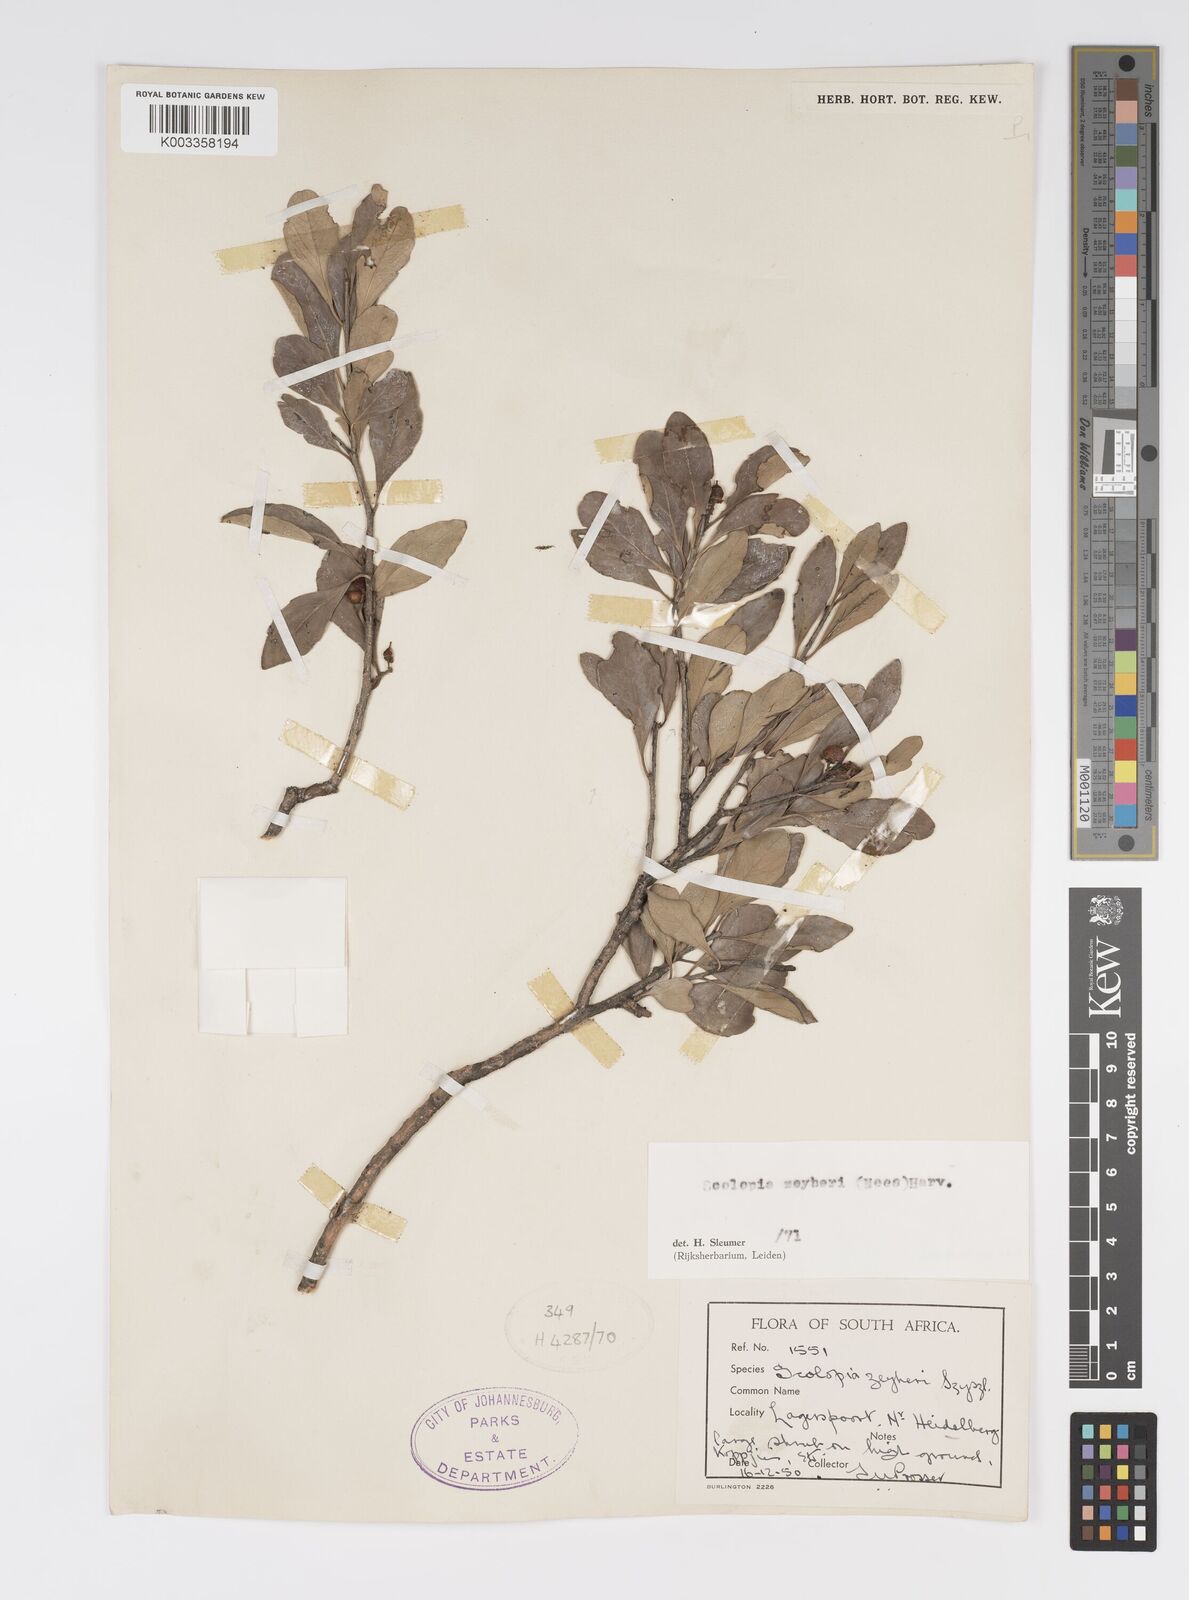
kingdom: Plantae
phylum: Tracheophyta
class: Magnoliopsida
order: Malpighiales
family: Salicaceae
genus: Scolopia
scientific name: Scolopia zeyheri
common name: Thorn pear
